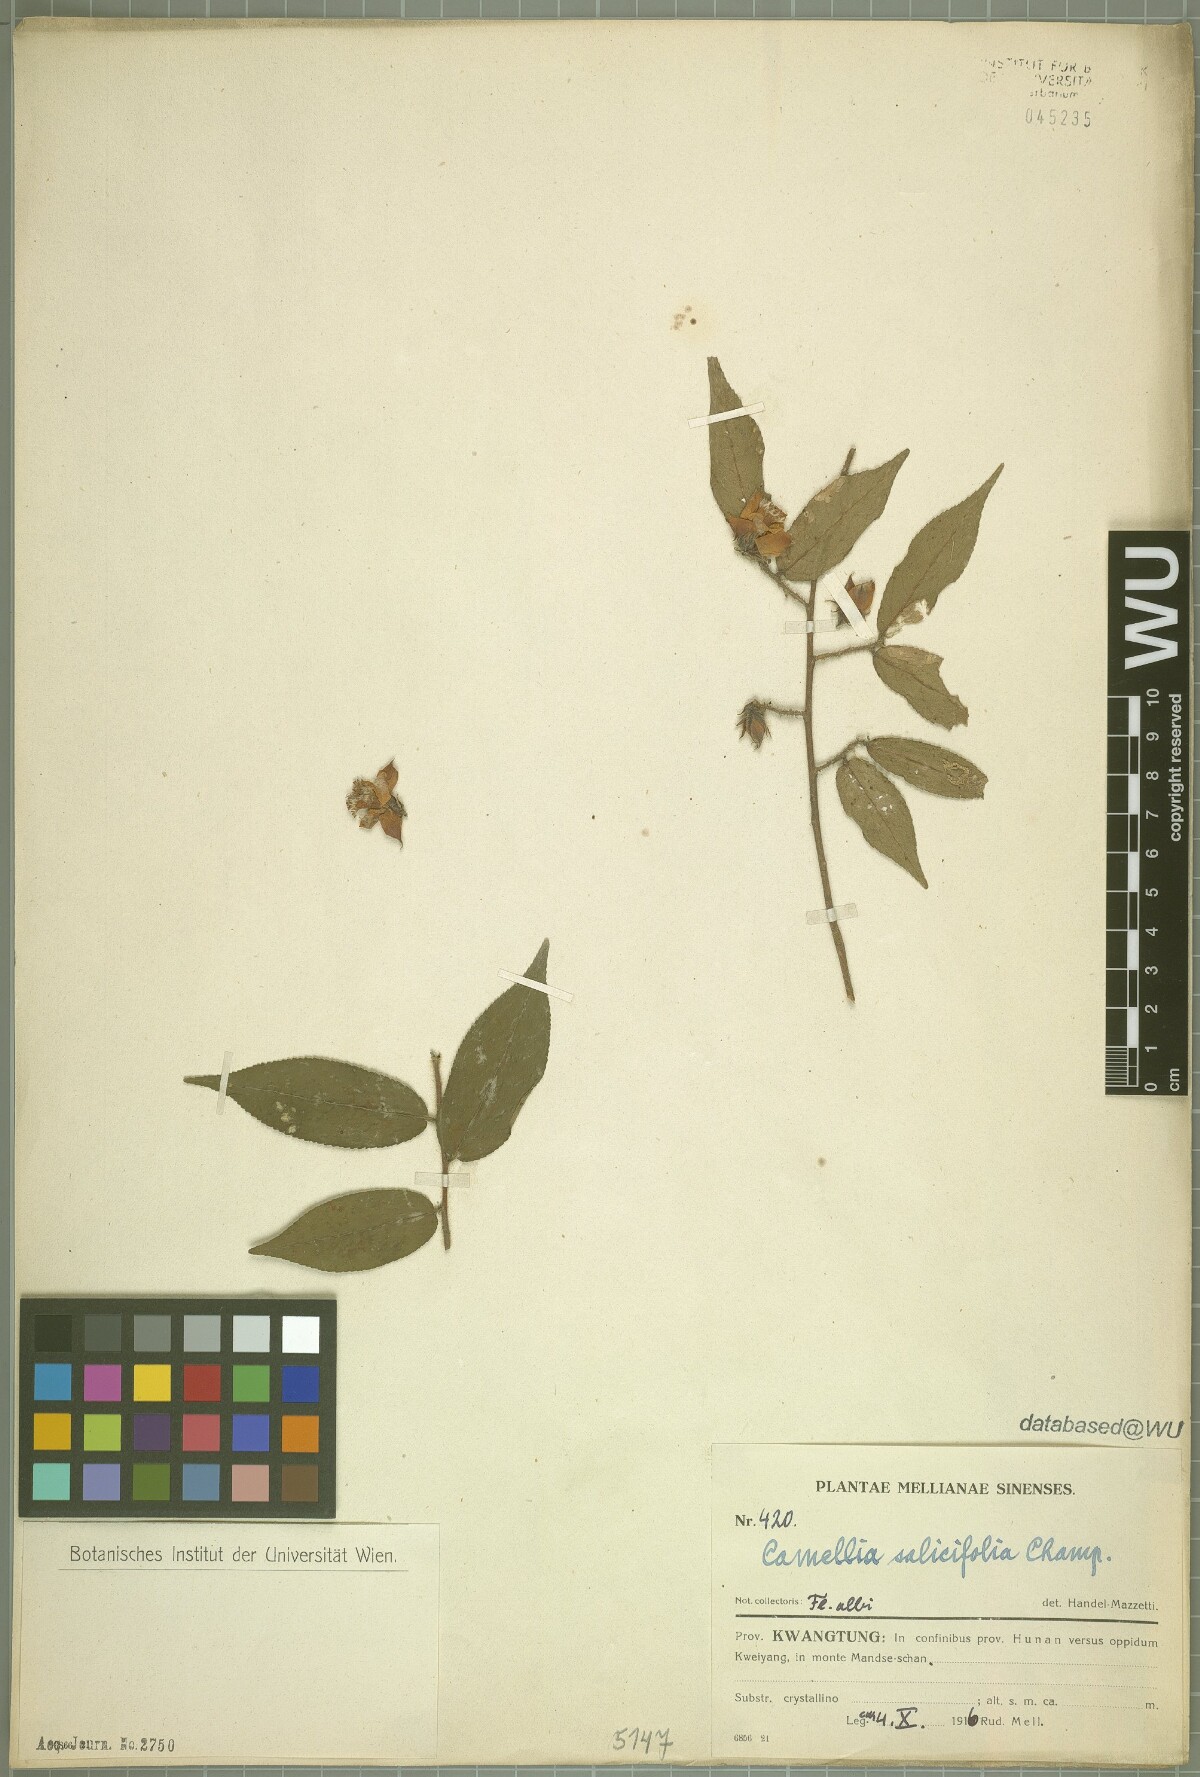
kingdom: Plantae
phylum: Tracheophyta
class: Magnoliopsida
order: Ericales
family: Theaceae
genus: Camellia
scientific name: Camellia salicifolia
